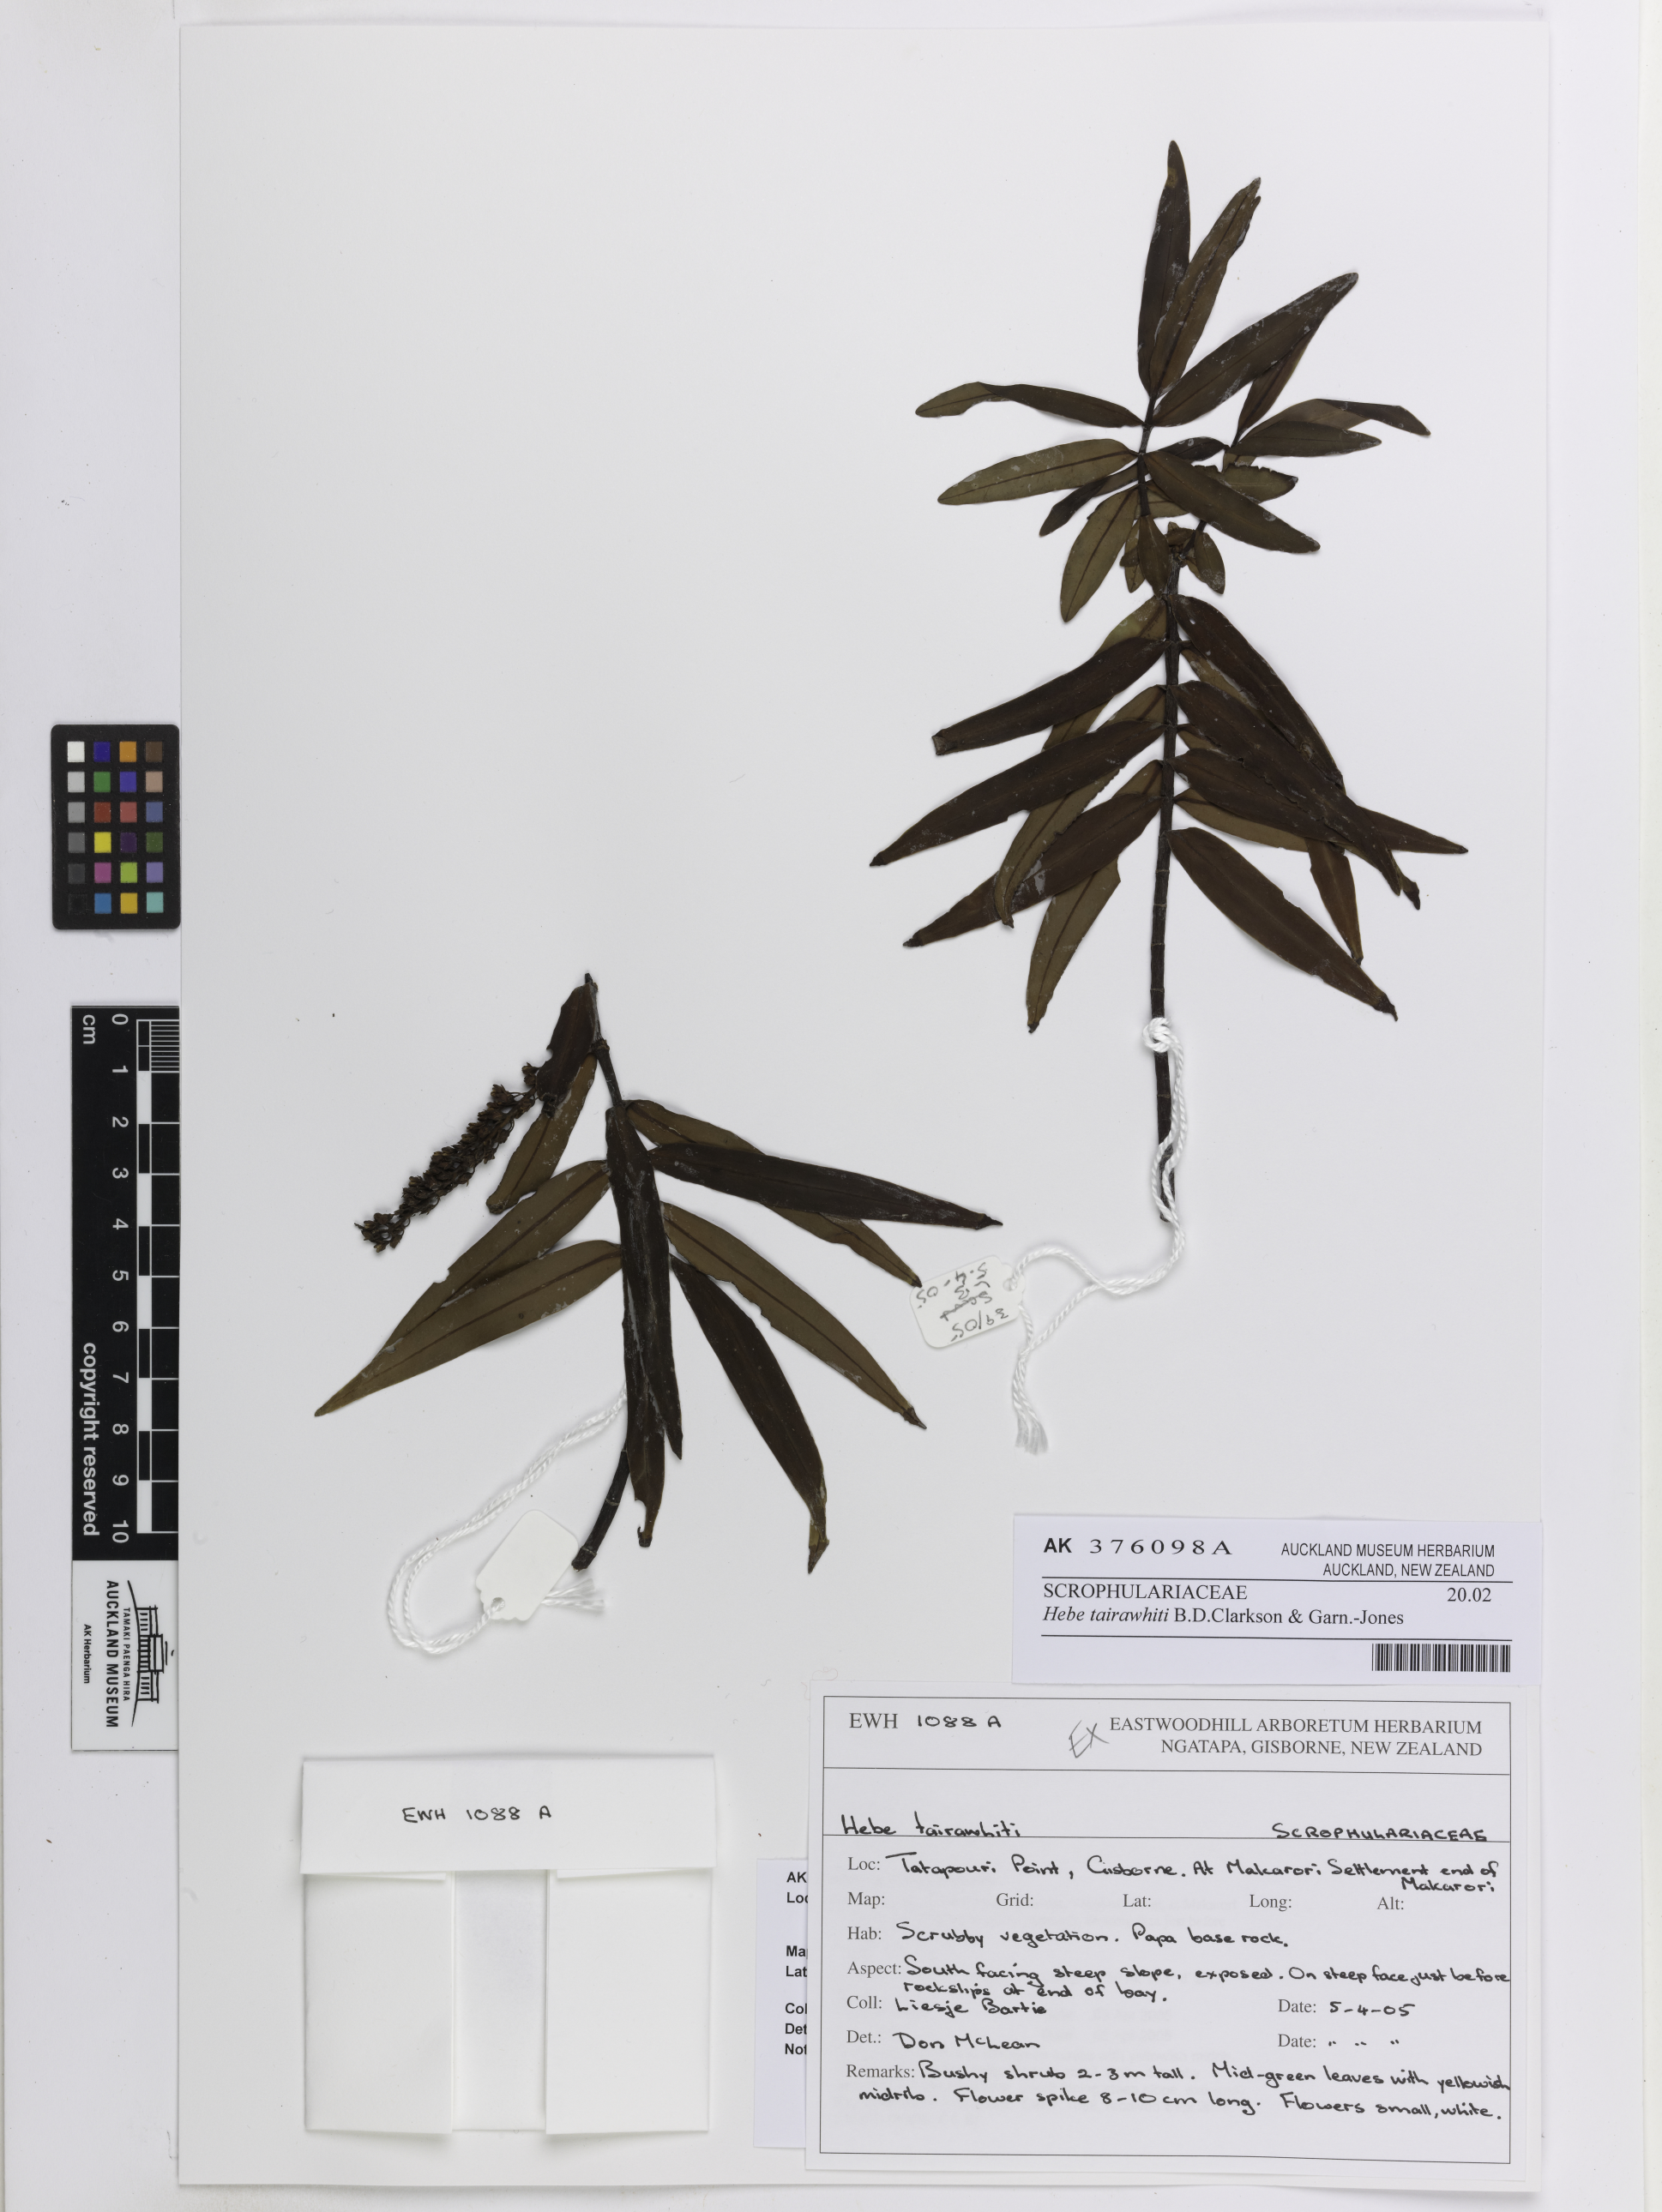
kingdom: Plantae
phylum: Tracheophyta
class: Magnoliopsida
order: Lamiales
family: Plantaginaceae
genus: Veronica
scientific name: Veronica tairawhiti
